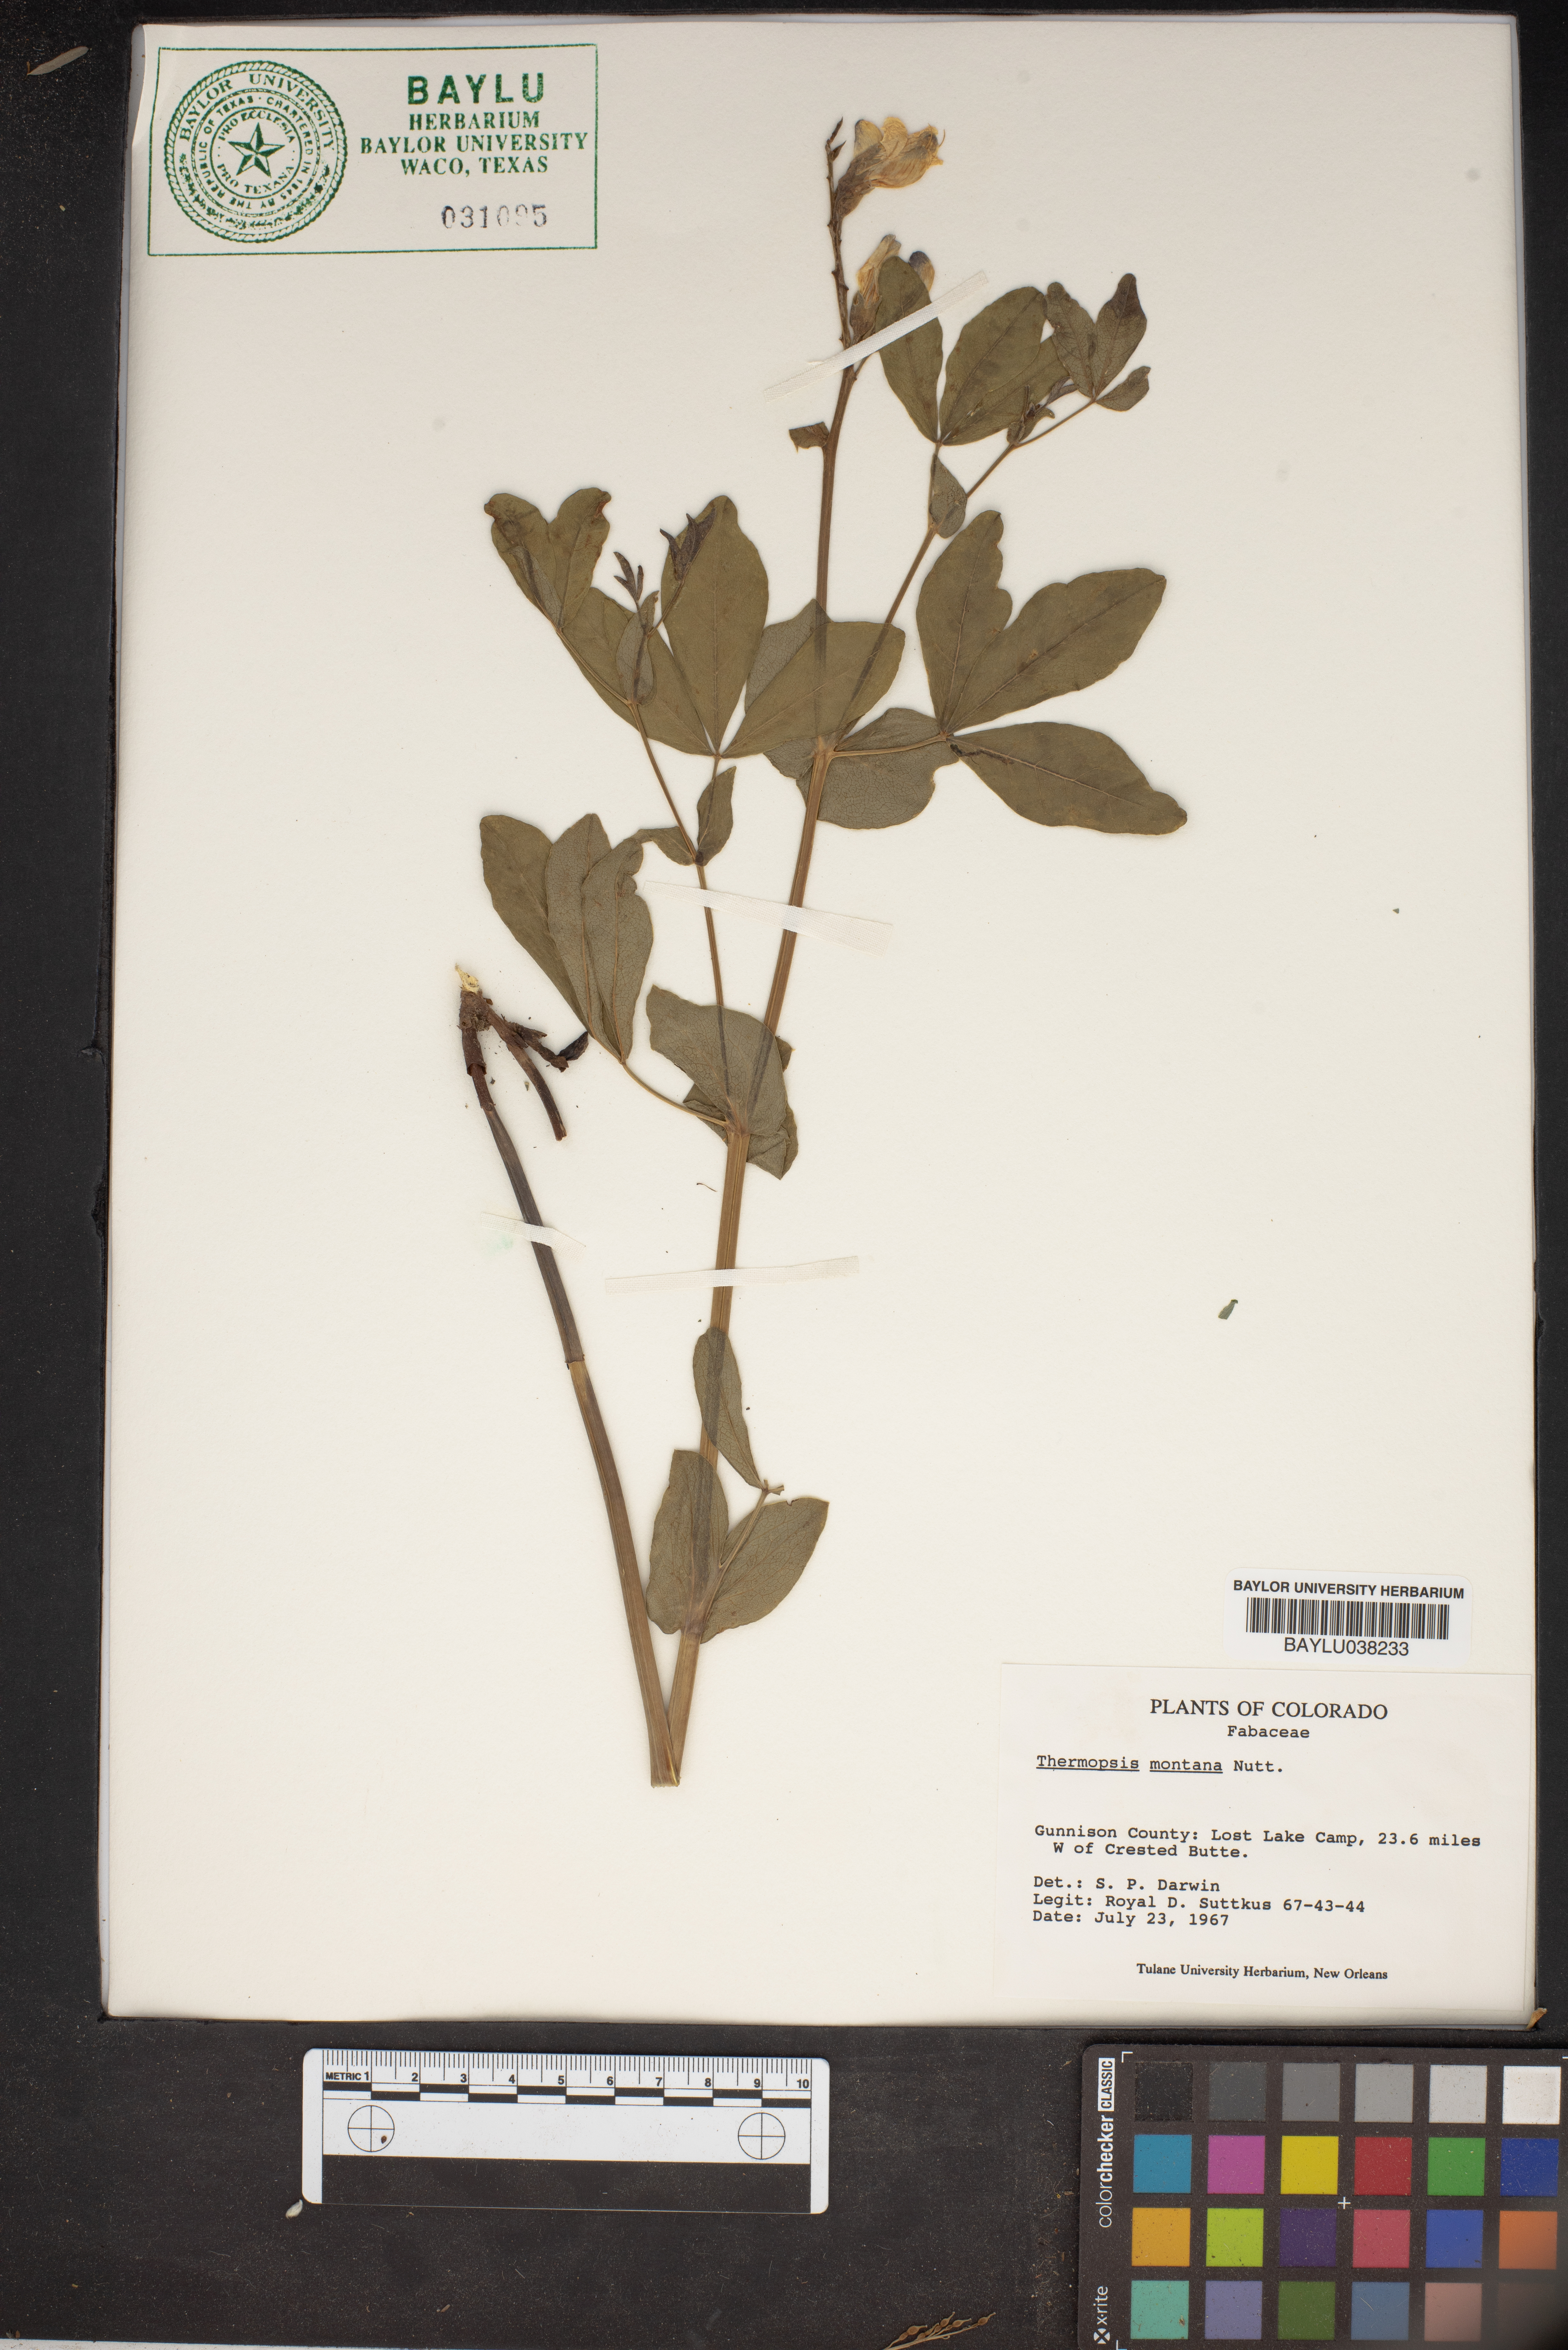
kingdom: Plantae
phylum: Tracheophyta
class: Magnoliopsida
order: Fabales
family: Fabaceae
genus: Thermopsis
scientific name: Thermopsis montana
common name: False lupin
